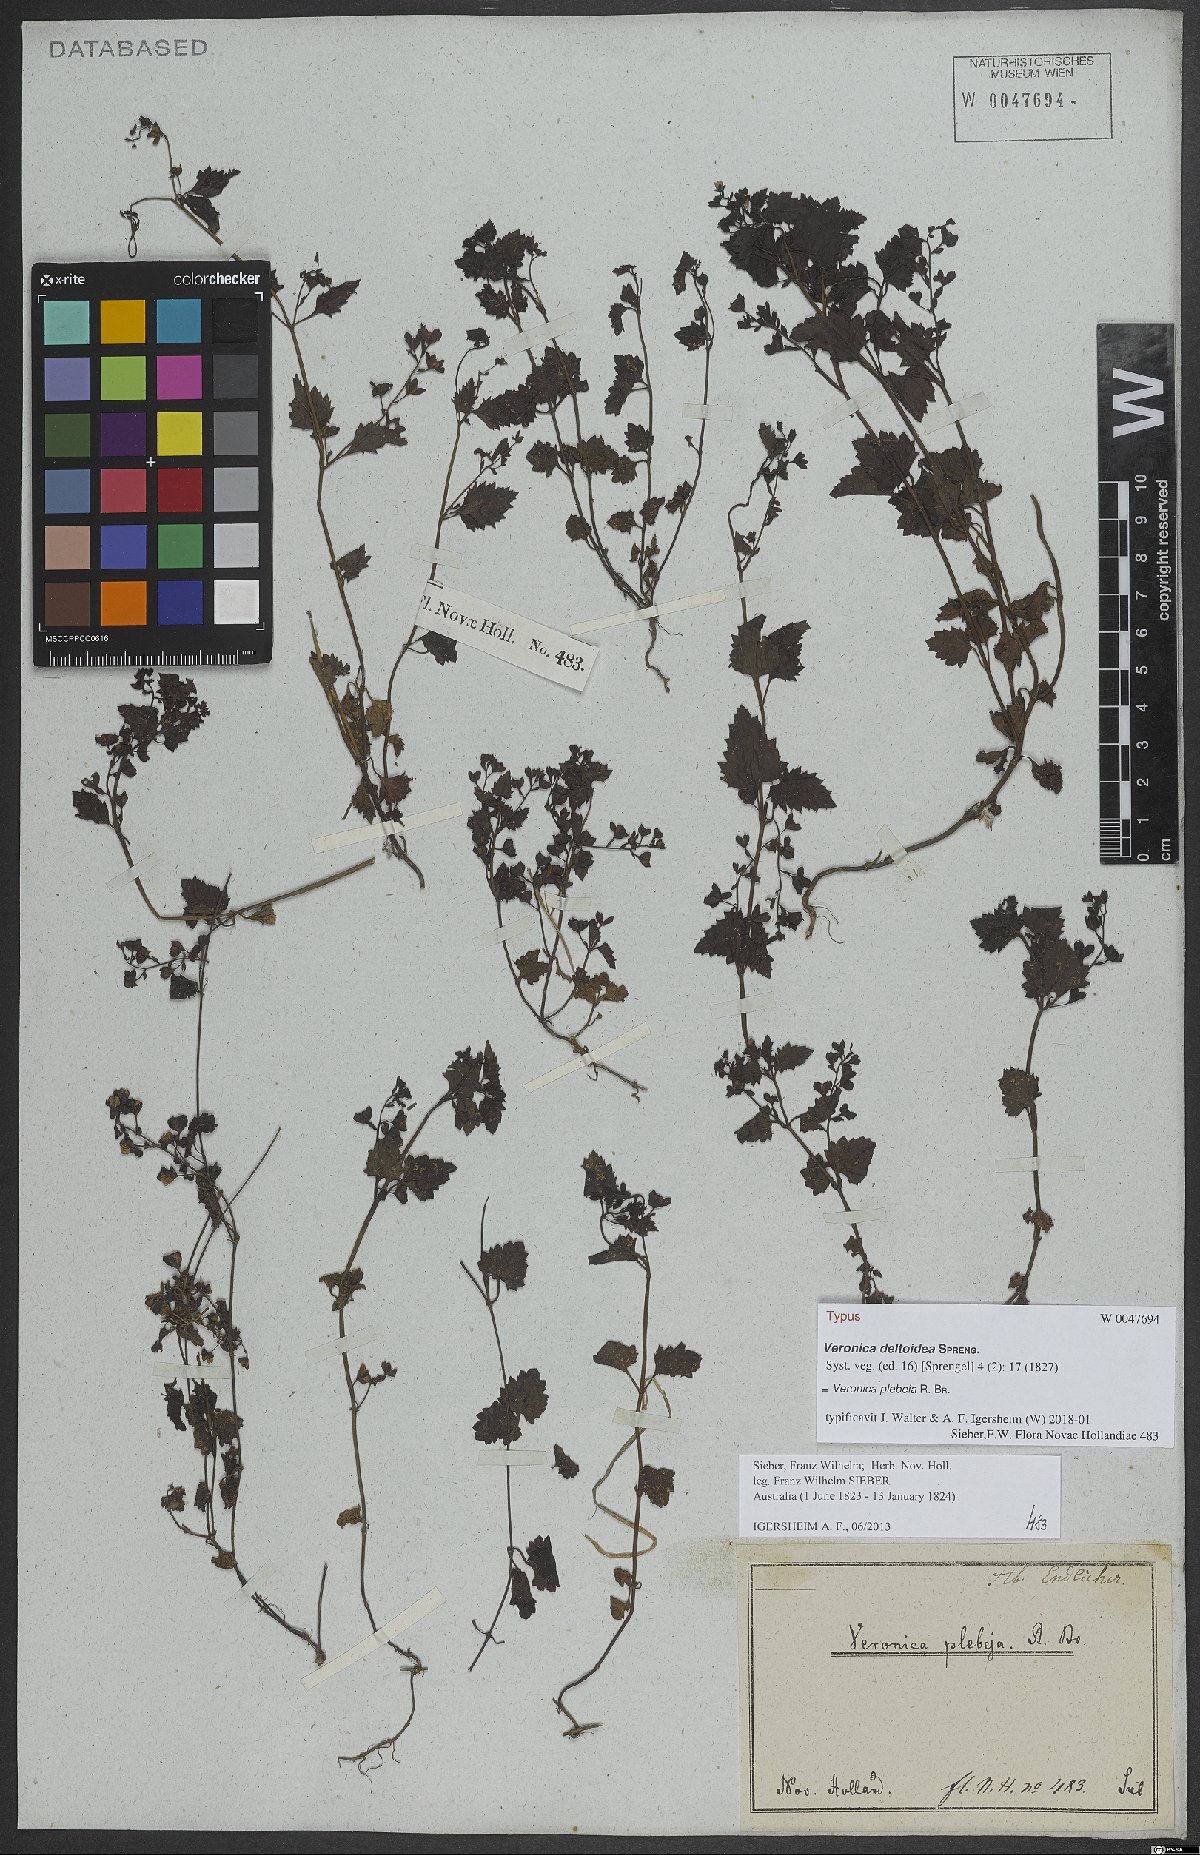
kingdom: Plantae
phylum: Tracheophyta
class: Magnoliopsida
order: Lamiales
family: Plantaginaceae
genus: Veronica
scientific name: Veronica plebeia
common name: Speedwell
